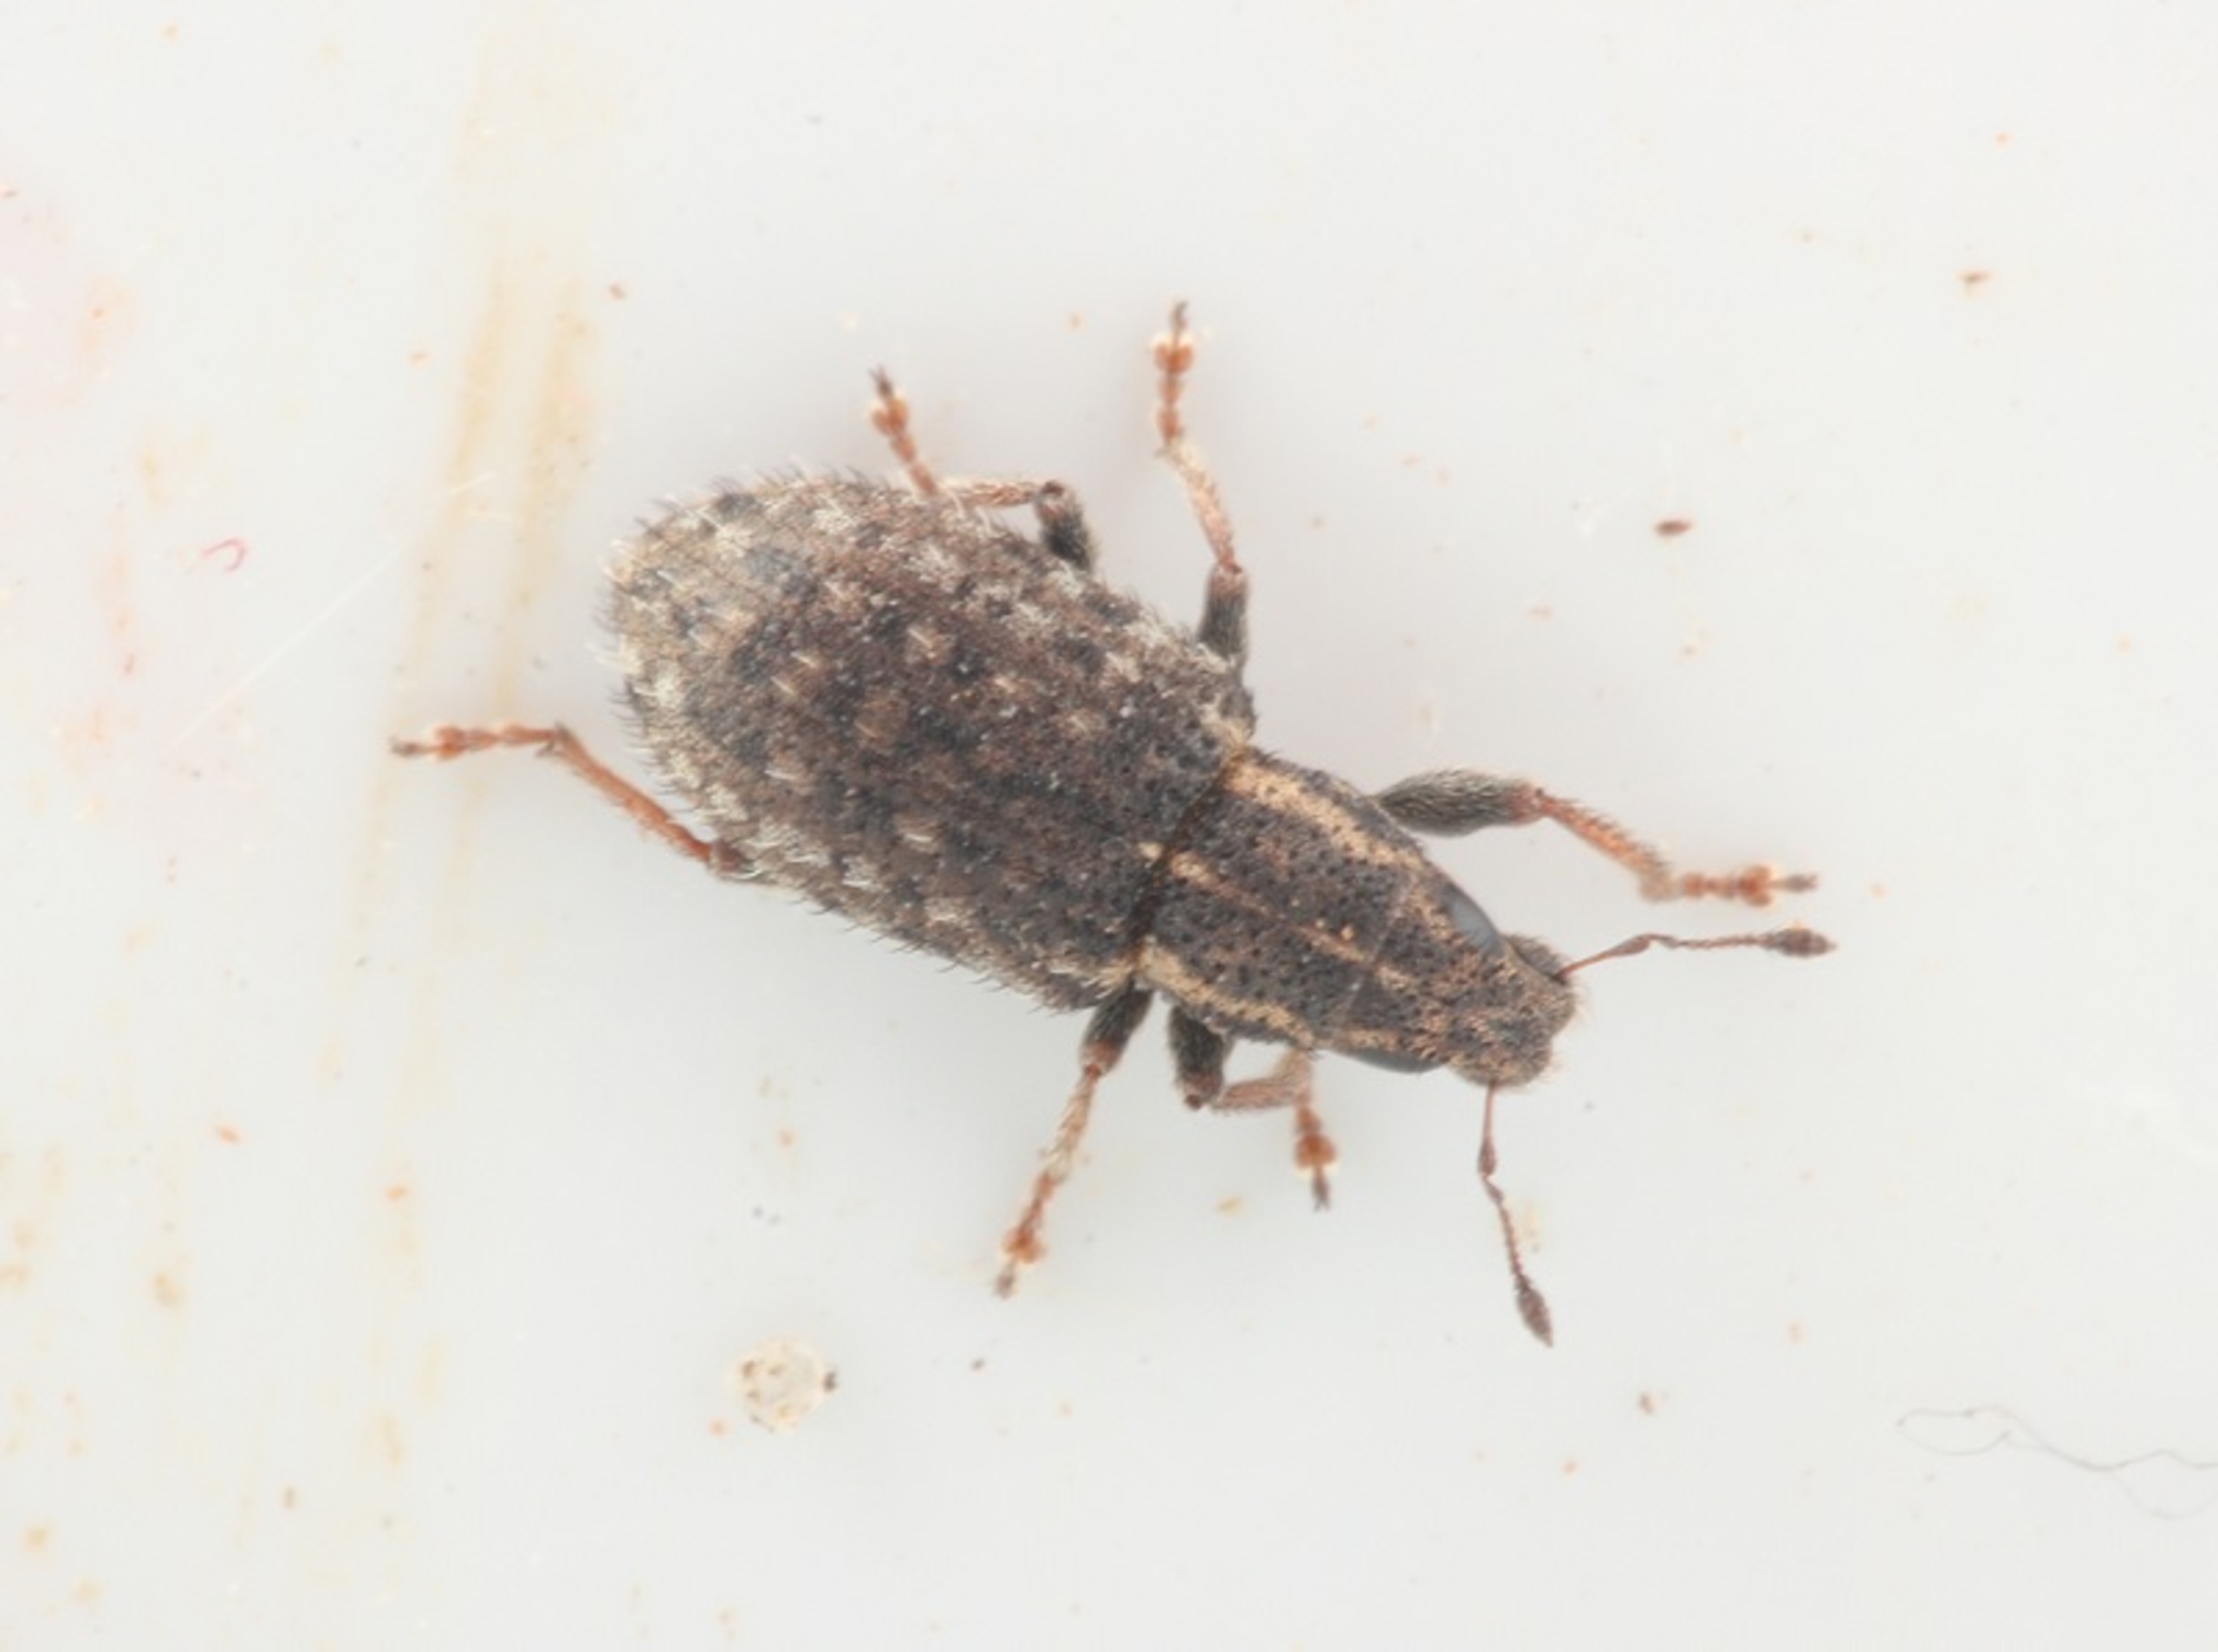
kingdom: Animalia
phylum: Arthropoda
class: Insecta
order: Coleoptera
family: Curculionidae
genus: Sitona
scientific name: Sitona hispidulus
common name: Kløverbladrandbille
